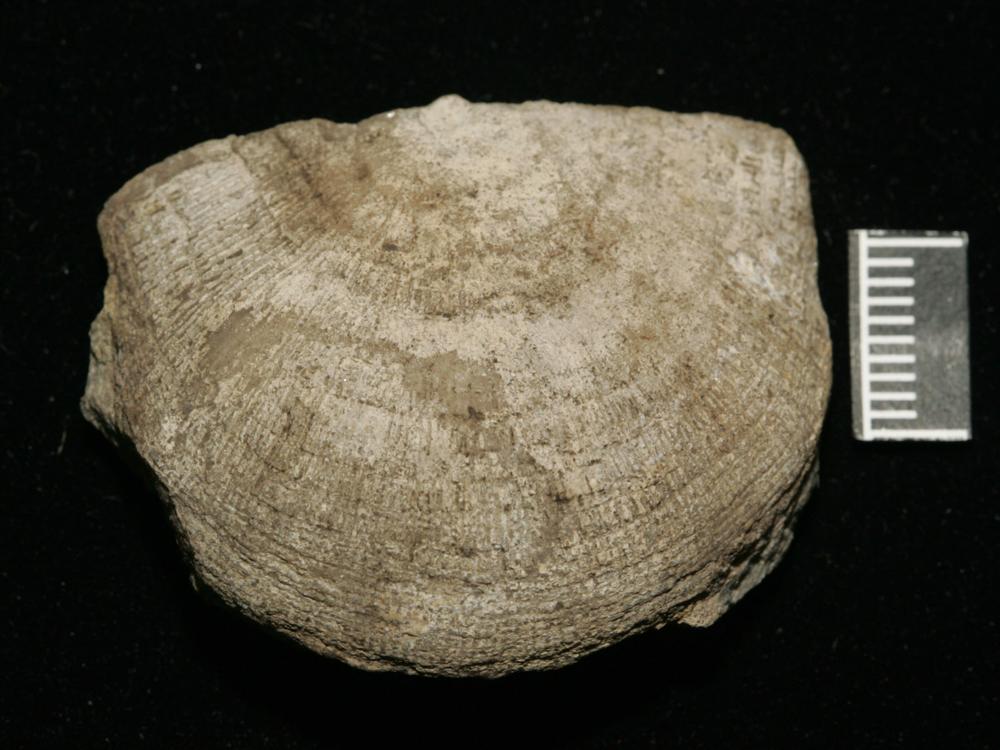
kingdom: Animalia
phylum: Brachiopoda
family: Gonambonitidae
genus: Gonambonites
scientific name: Gonambonites plana
